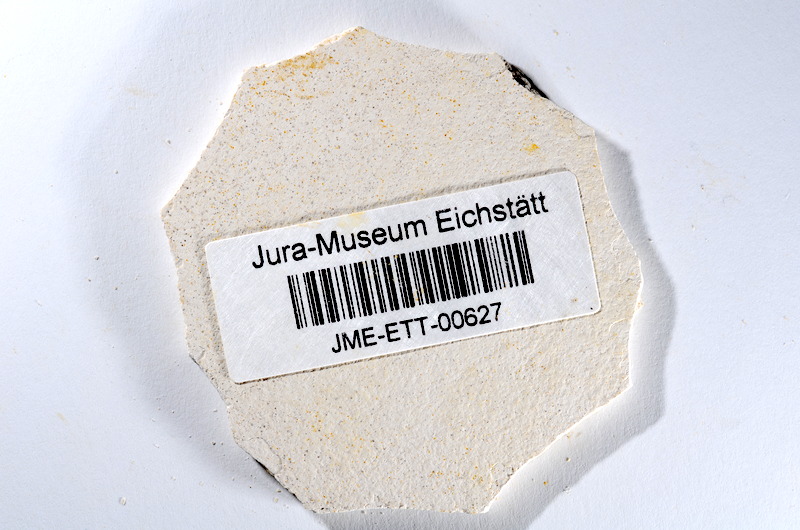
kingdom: Animalia
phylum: Chordata
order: Salmoniformes
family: Orthogonikleithridae
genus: Orthogonikleithrus
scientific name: Orthogonikleithrus hoelli
